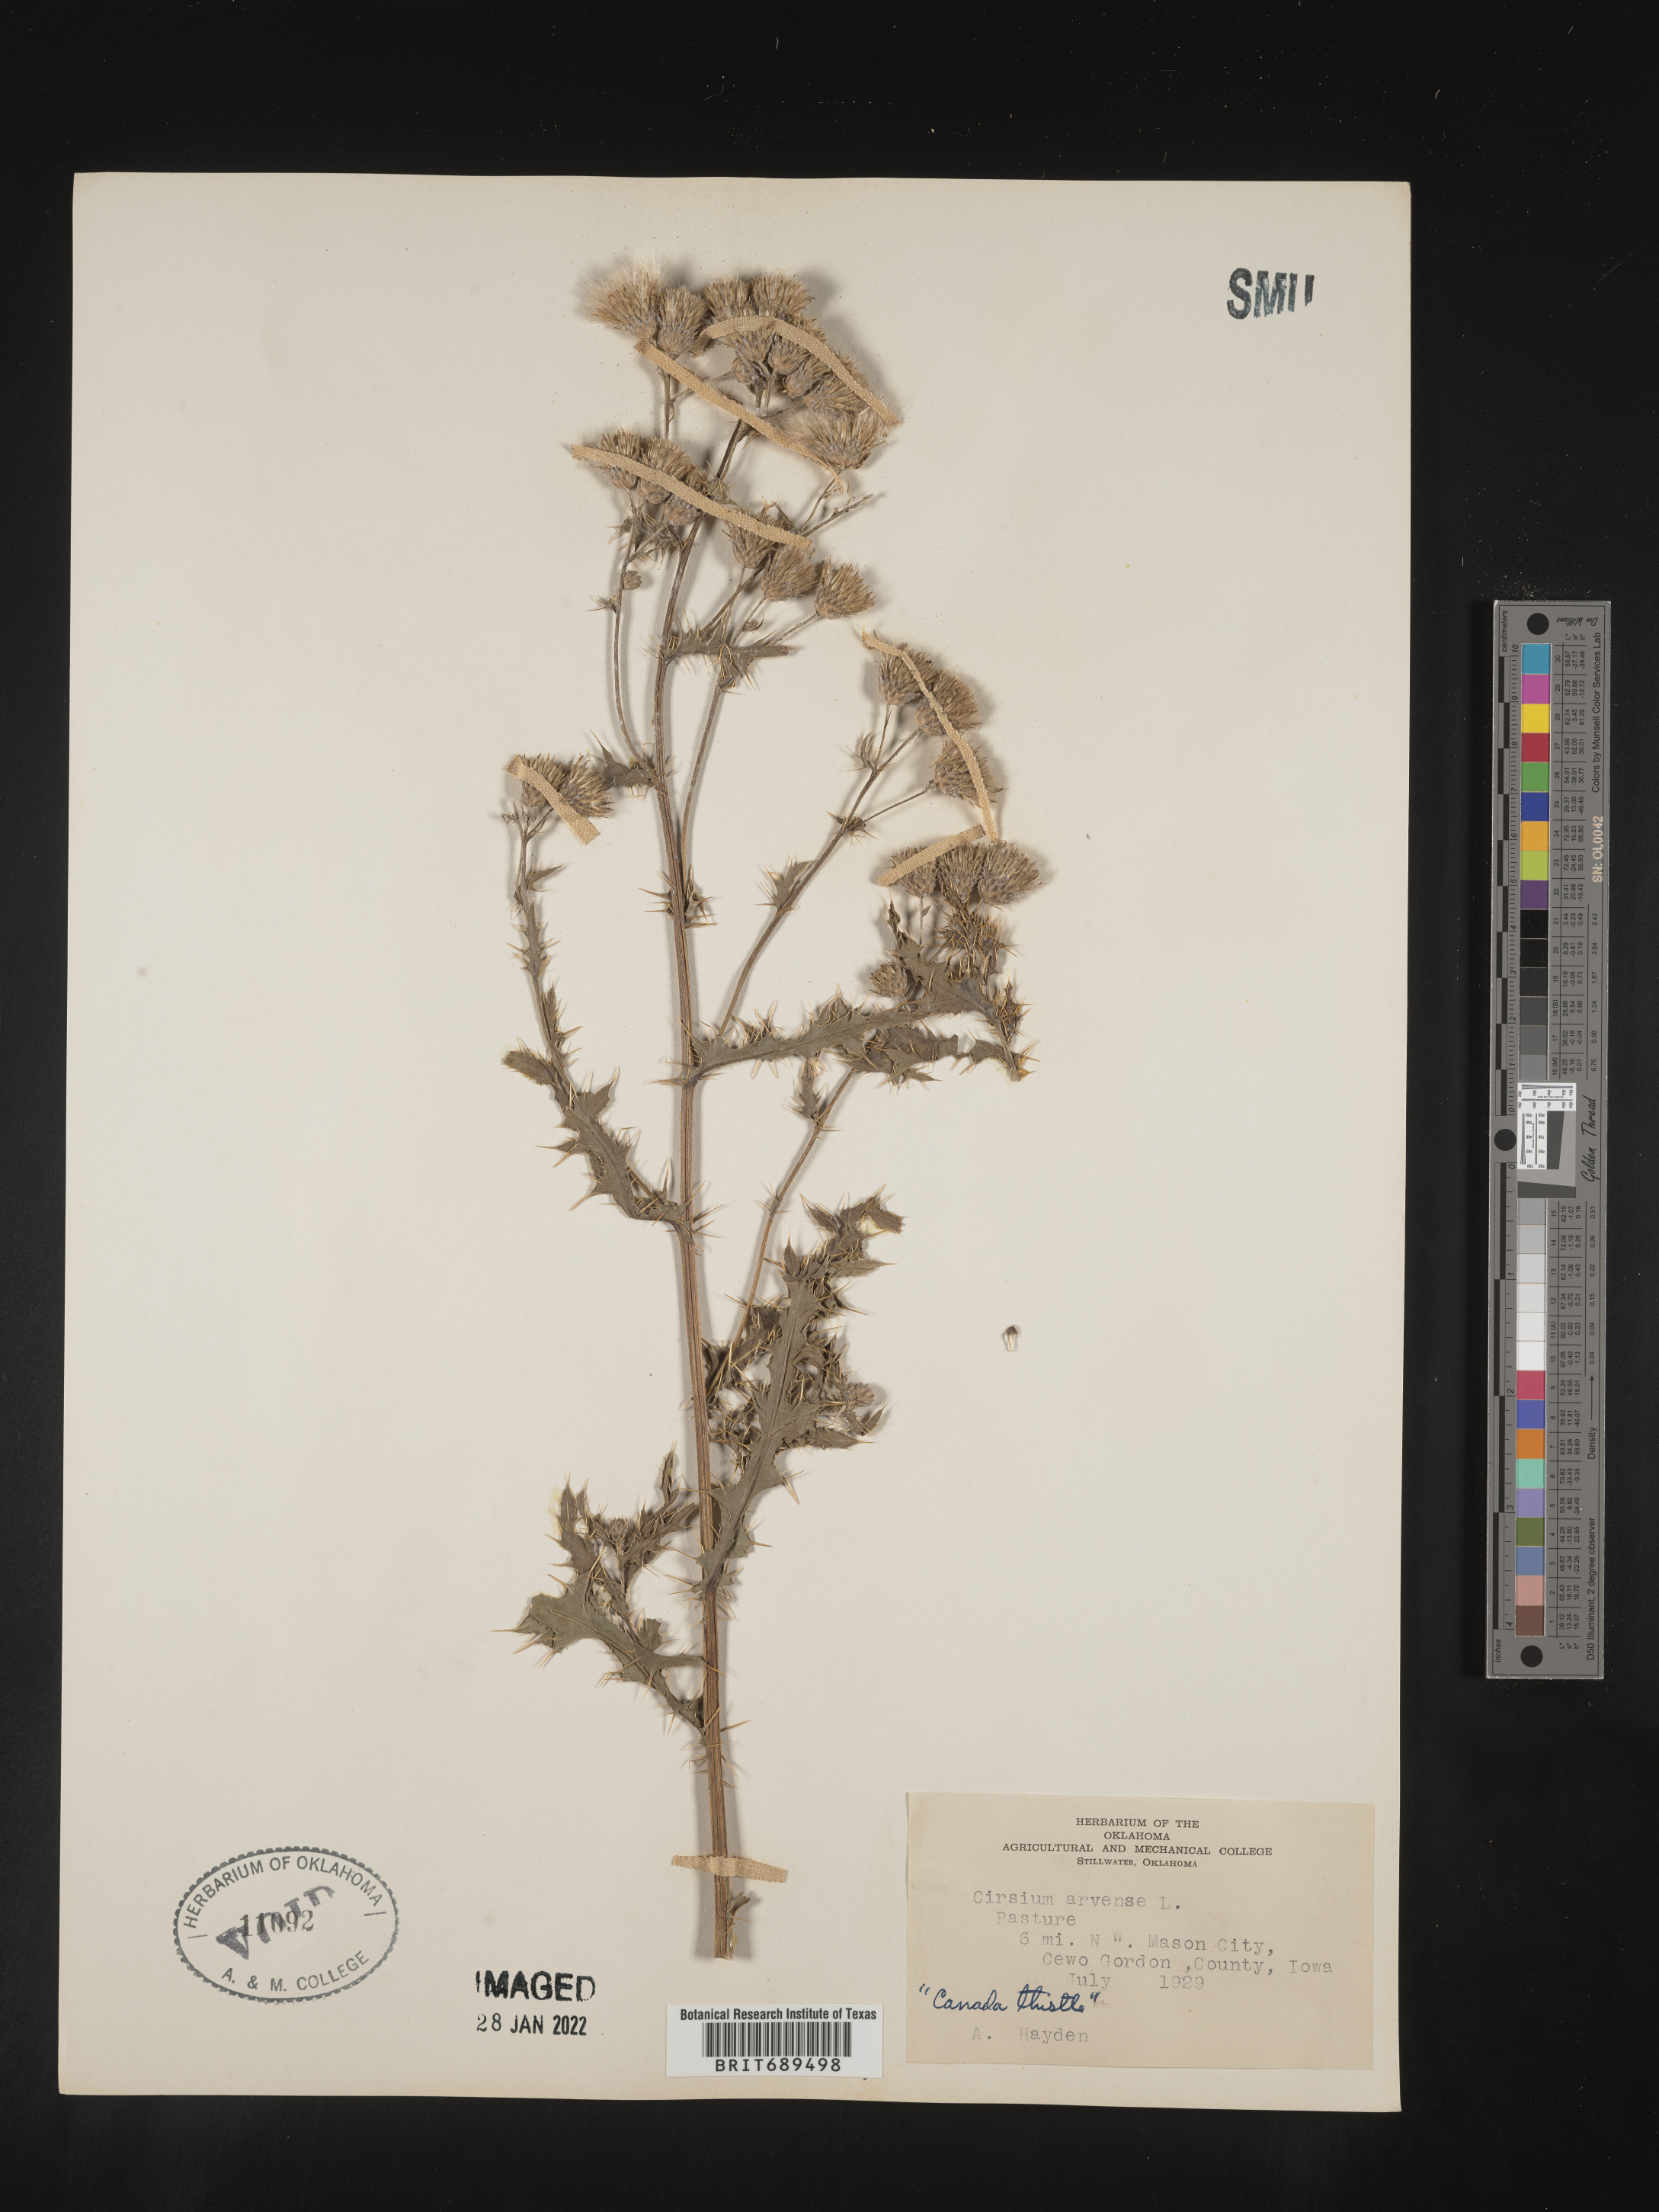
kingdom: Plantae
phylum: Tracheophyta
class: Magnoliopsida
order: Asterales
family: Asteraceae
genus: Cirsium
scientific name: Cirsium arvense
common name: Creeping thistle
